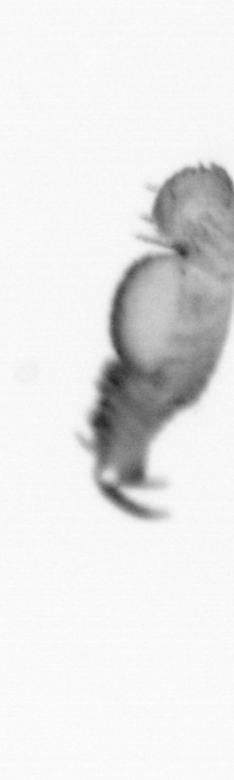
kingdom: Animalia
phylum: Annelida
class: Polychaeta
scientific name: Polychaeta
